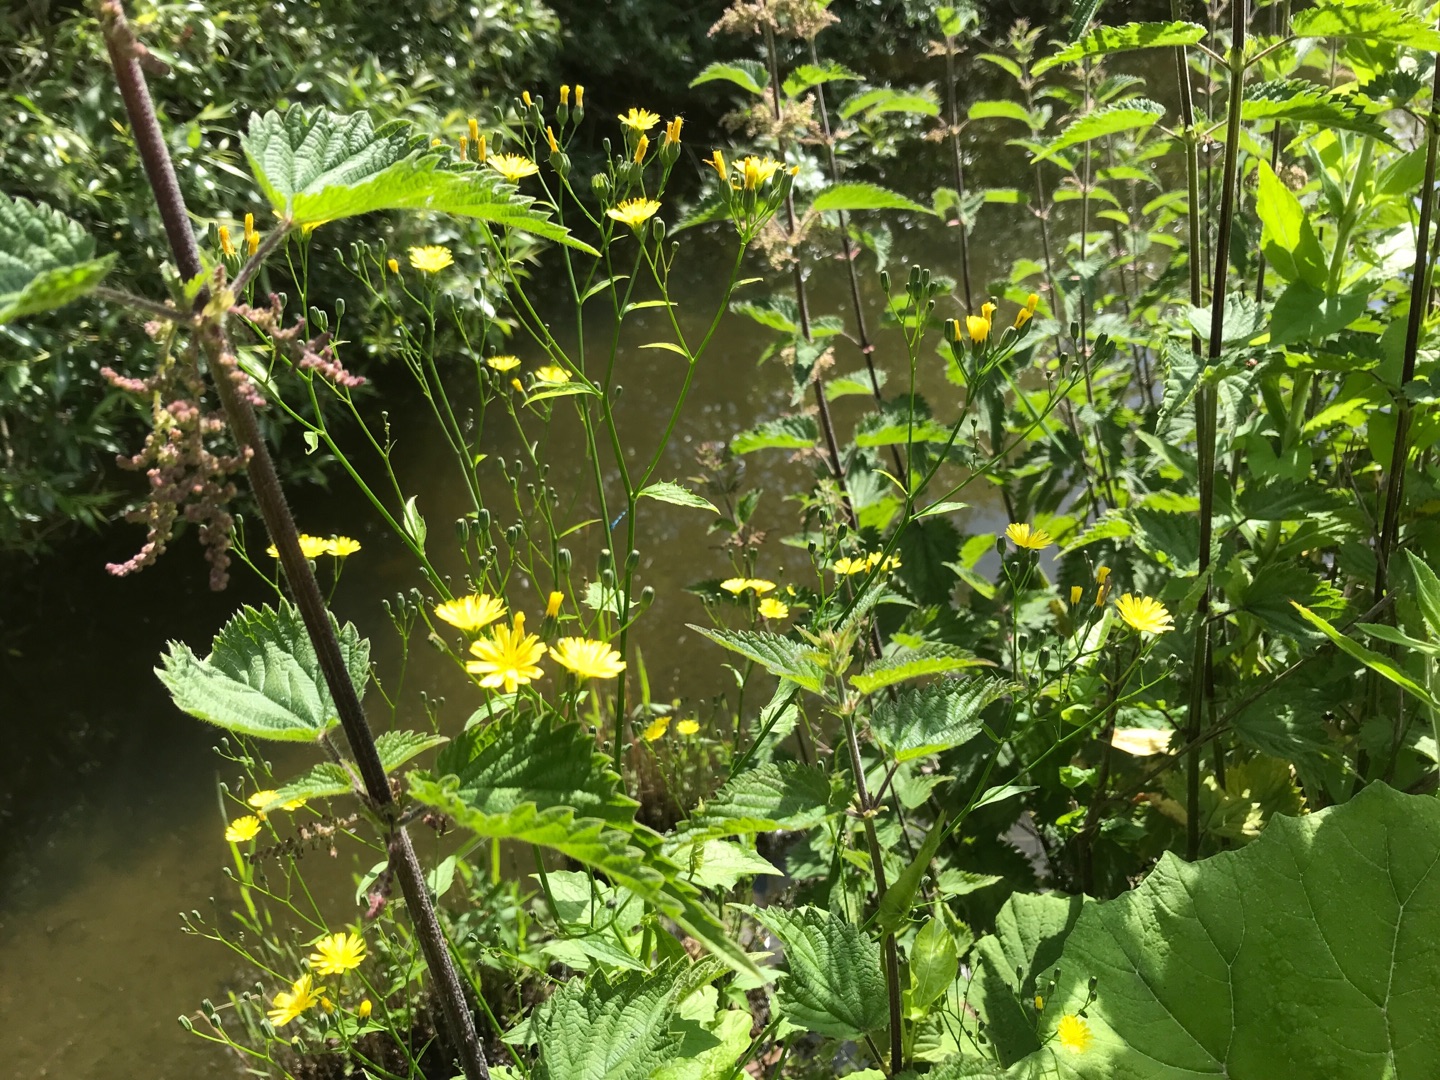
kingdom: Plantae
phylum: Tracheophyta
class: Magnoliopsida
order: Asterales
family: Asteraceae
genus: Lapsana
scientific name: Lapsana communis
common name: Haremad
